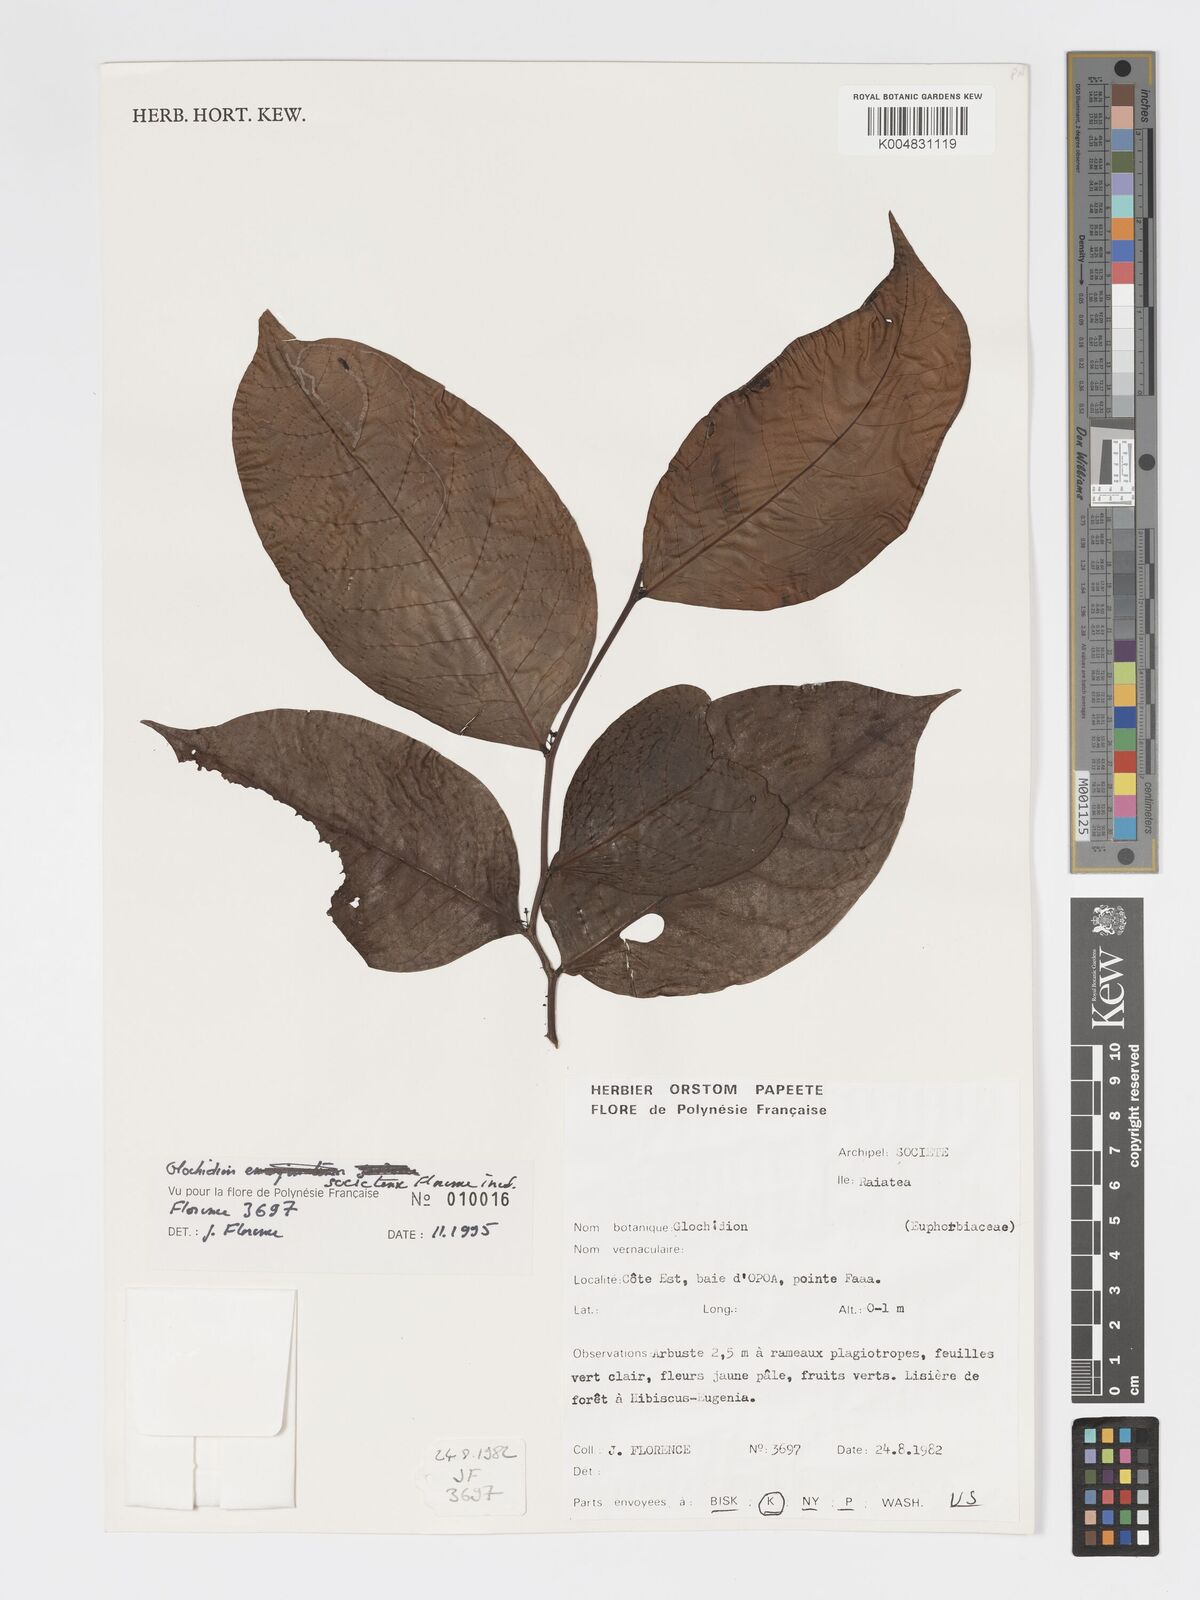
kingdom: Plantae
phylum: Tracheophyta
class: Magnoliopsida
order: Malpighiales
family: Phyllanthaceae
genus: Glochidion
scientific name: Glochidion societatis
